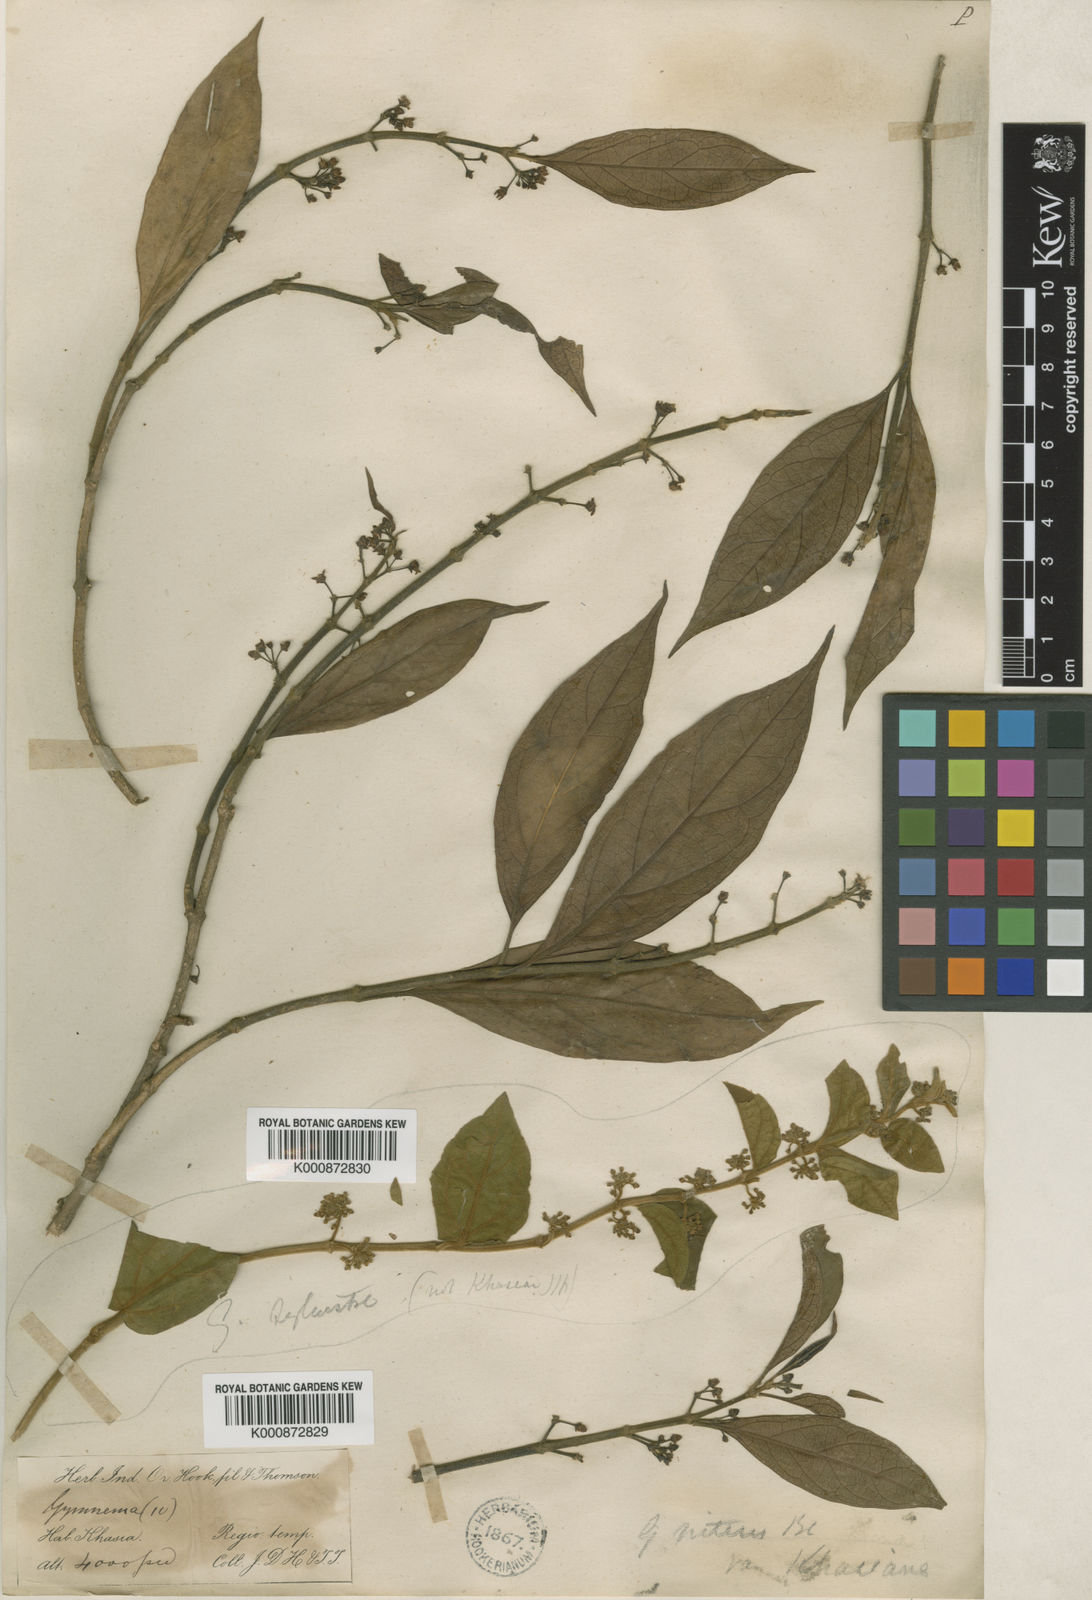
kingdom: Plantae
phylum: Tracheophyta
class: Magnoliopsida
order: Gentianales
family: Apocynaceae
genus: Gymnema
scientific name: Gymnema
